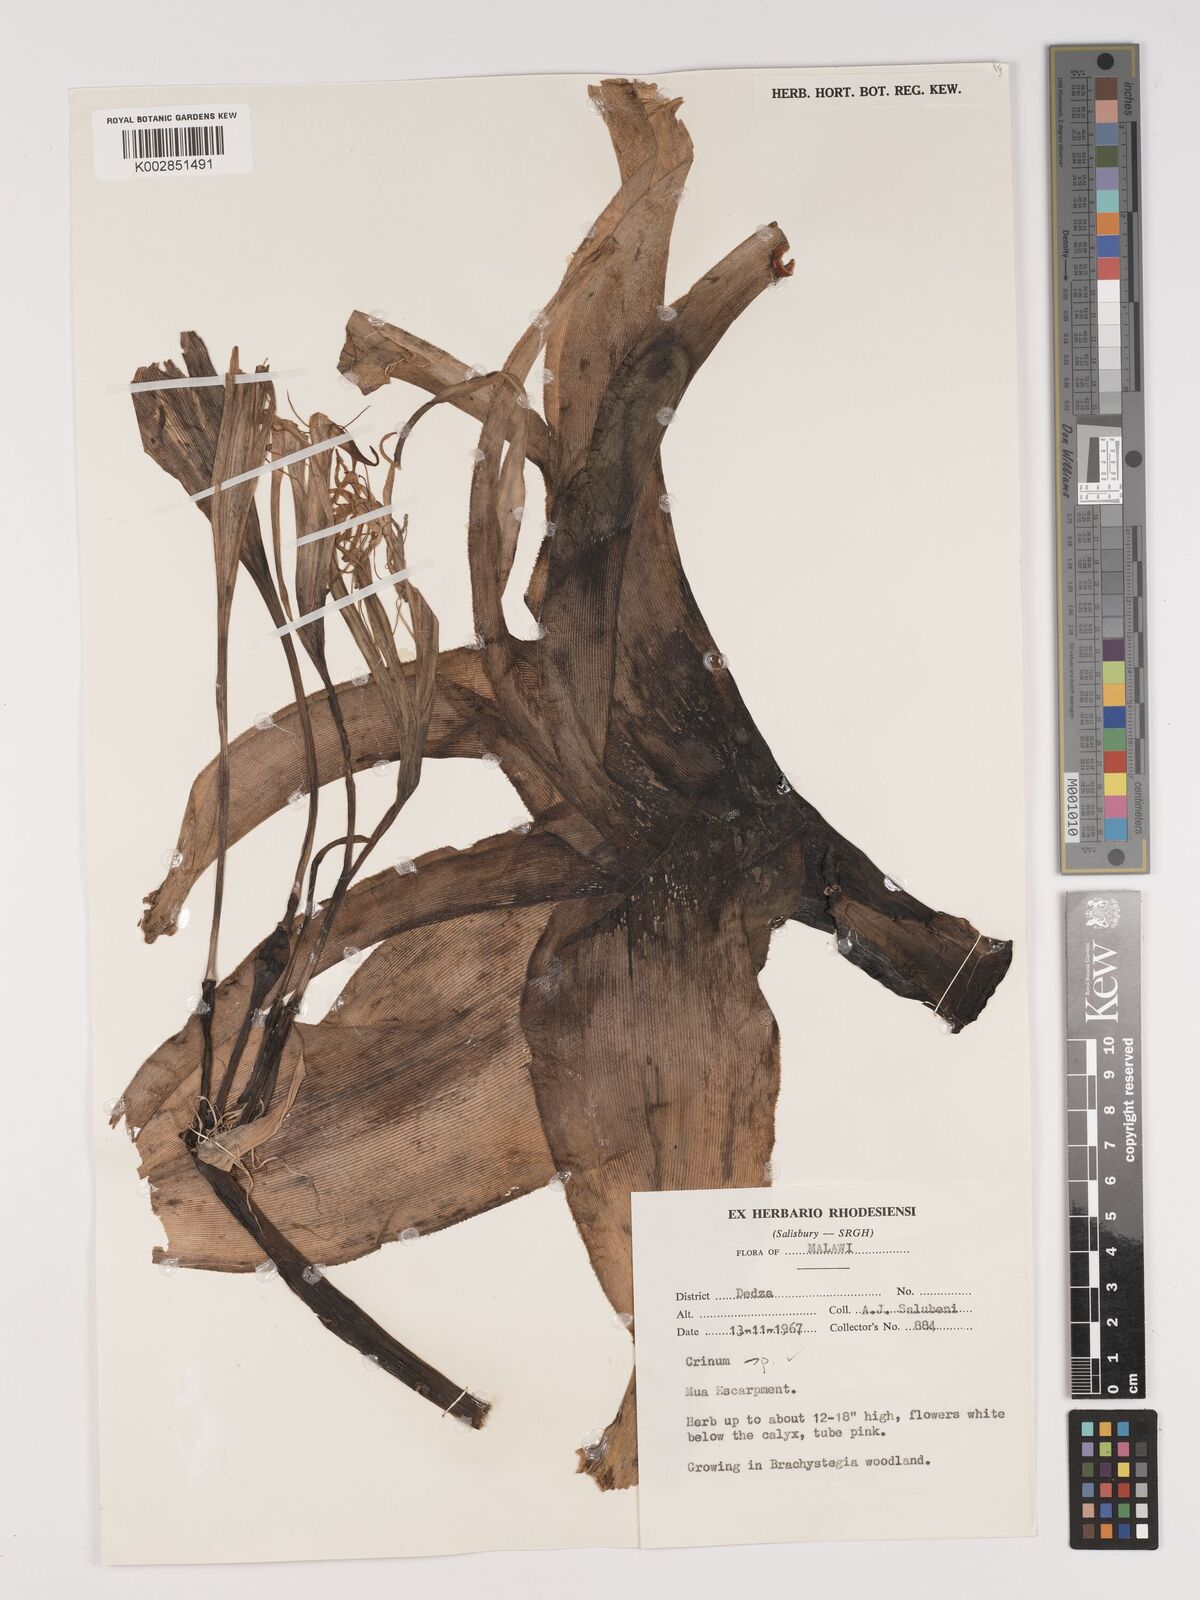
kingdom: Plantae
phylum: Tracheophyta
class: Liliopsida
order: Asparagales
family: Amaryllidaceae
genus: Crinum
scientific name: Crinum stuhlmannii
